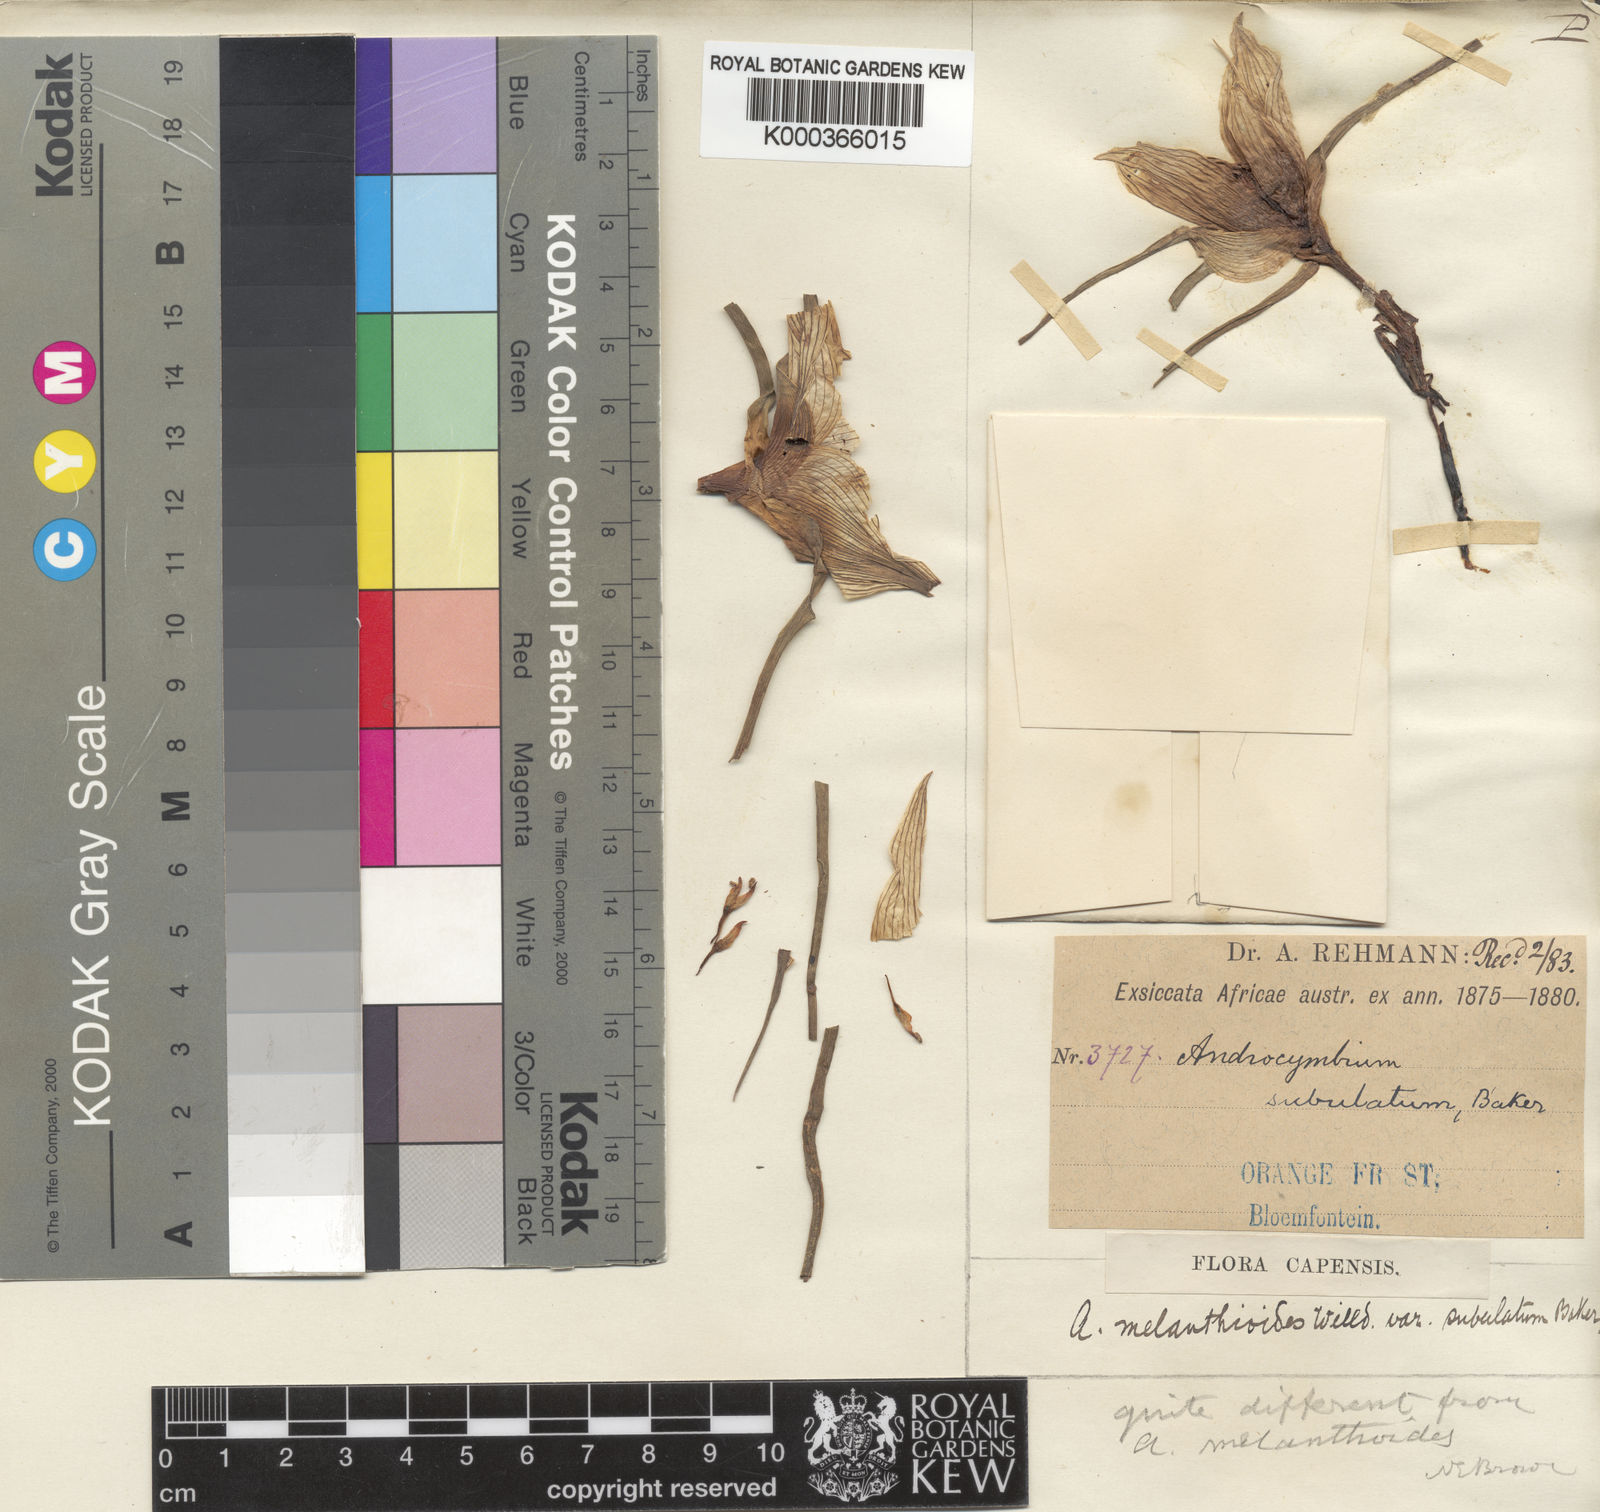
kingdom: Plantae
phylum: Tracheophyta
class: Liliopsida
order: Liliales
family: Colchicaceae
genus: Colchicum
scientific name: Colchicum melanthioides
